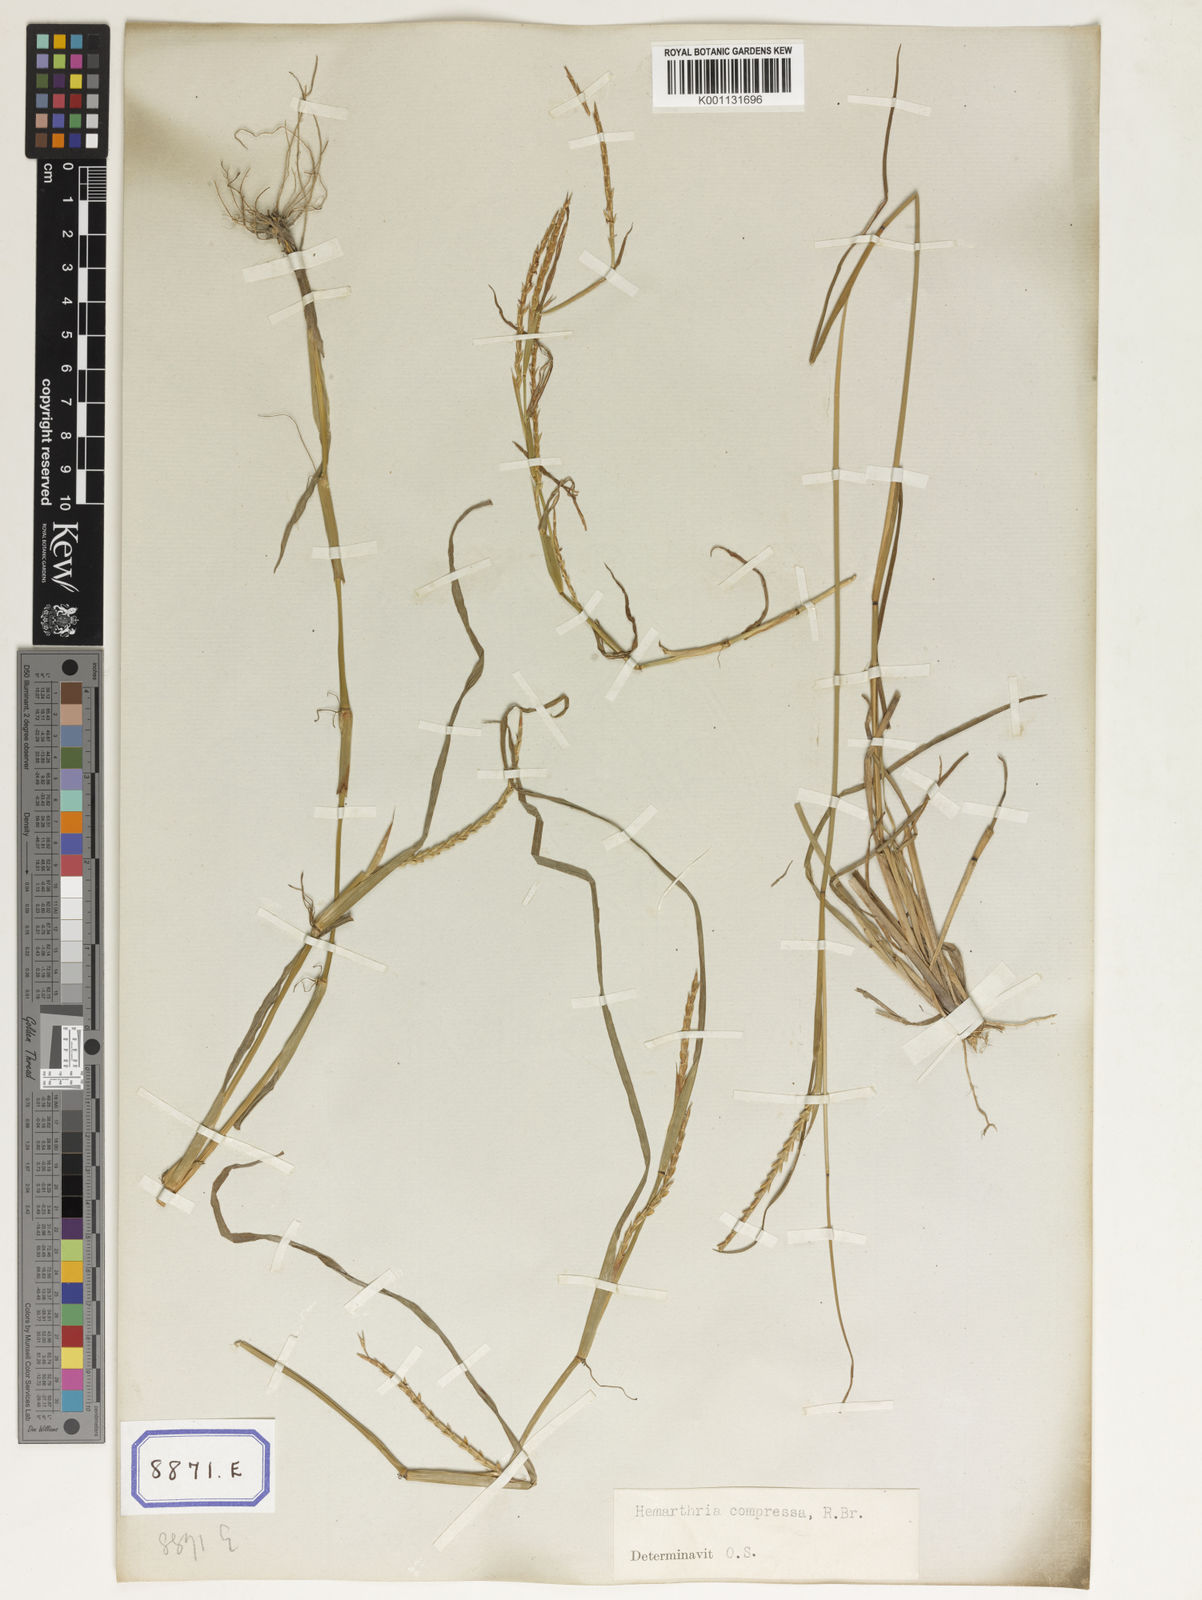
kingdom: Plantae
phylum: Tracheophyta
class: Liliopsida
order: Poales
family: Poaceae
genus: Hemarthria
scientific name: Hemarthria
